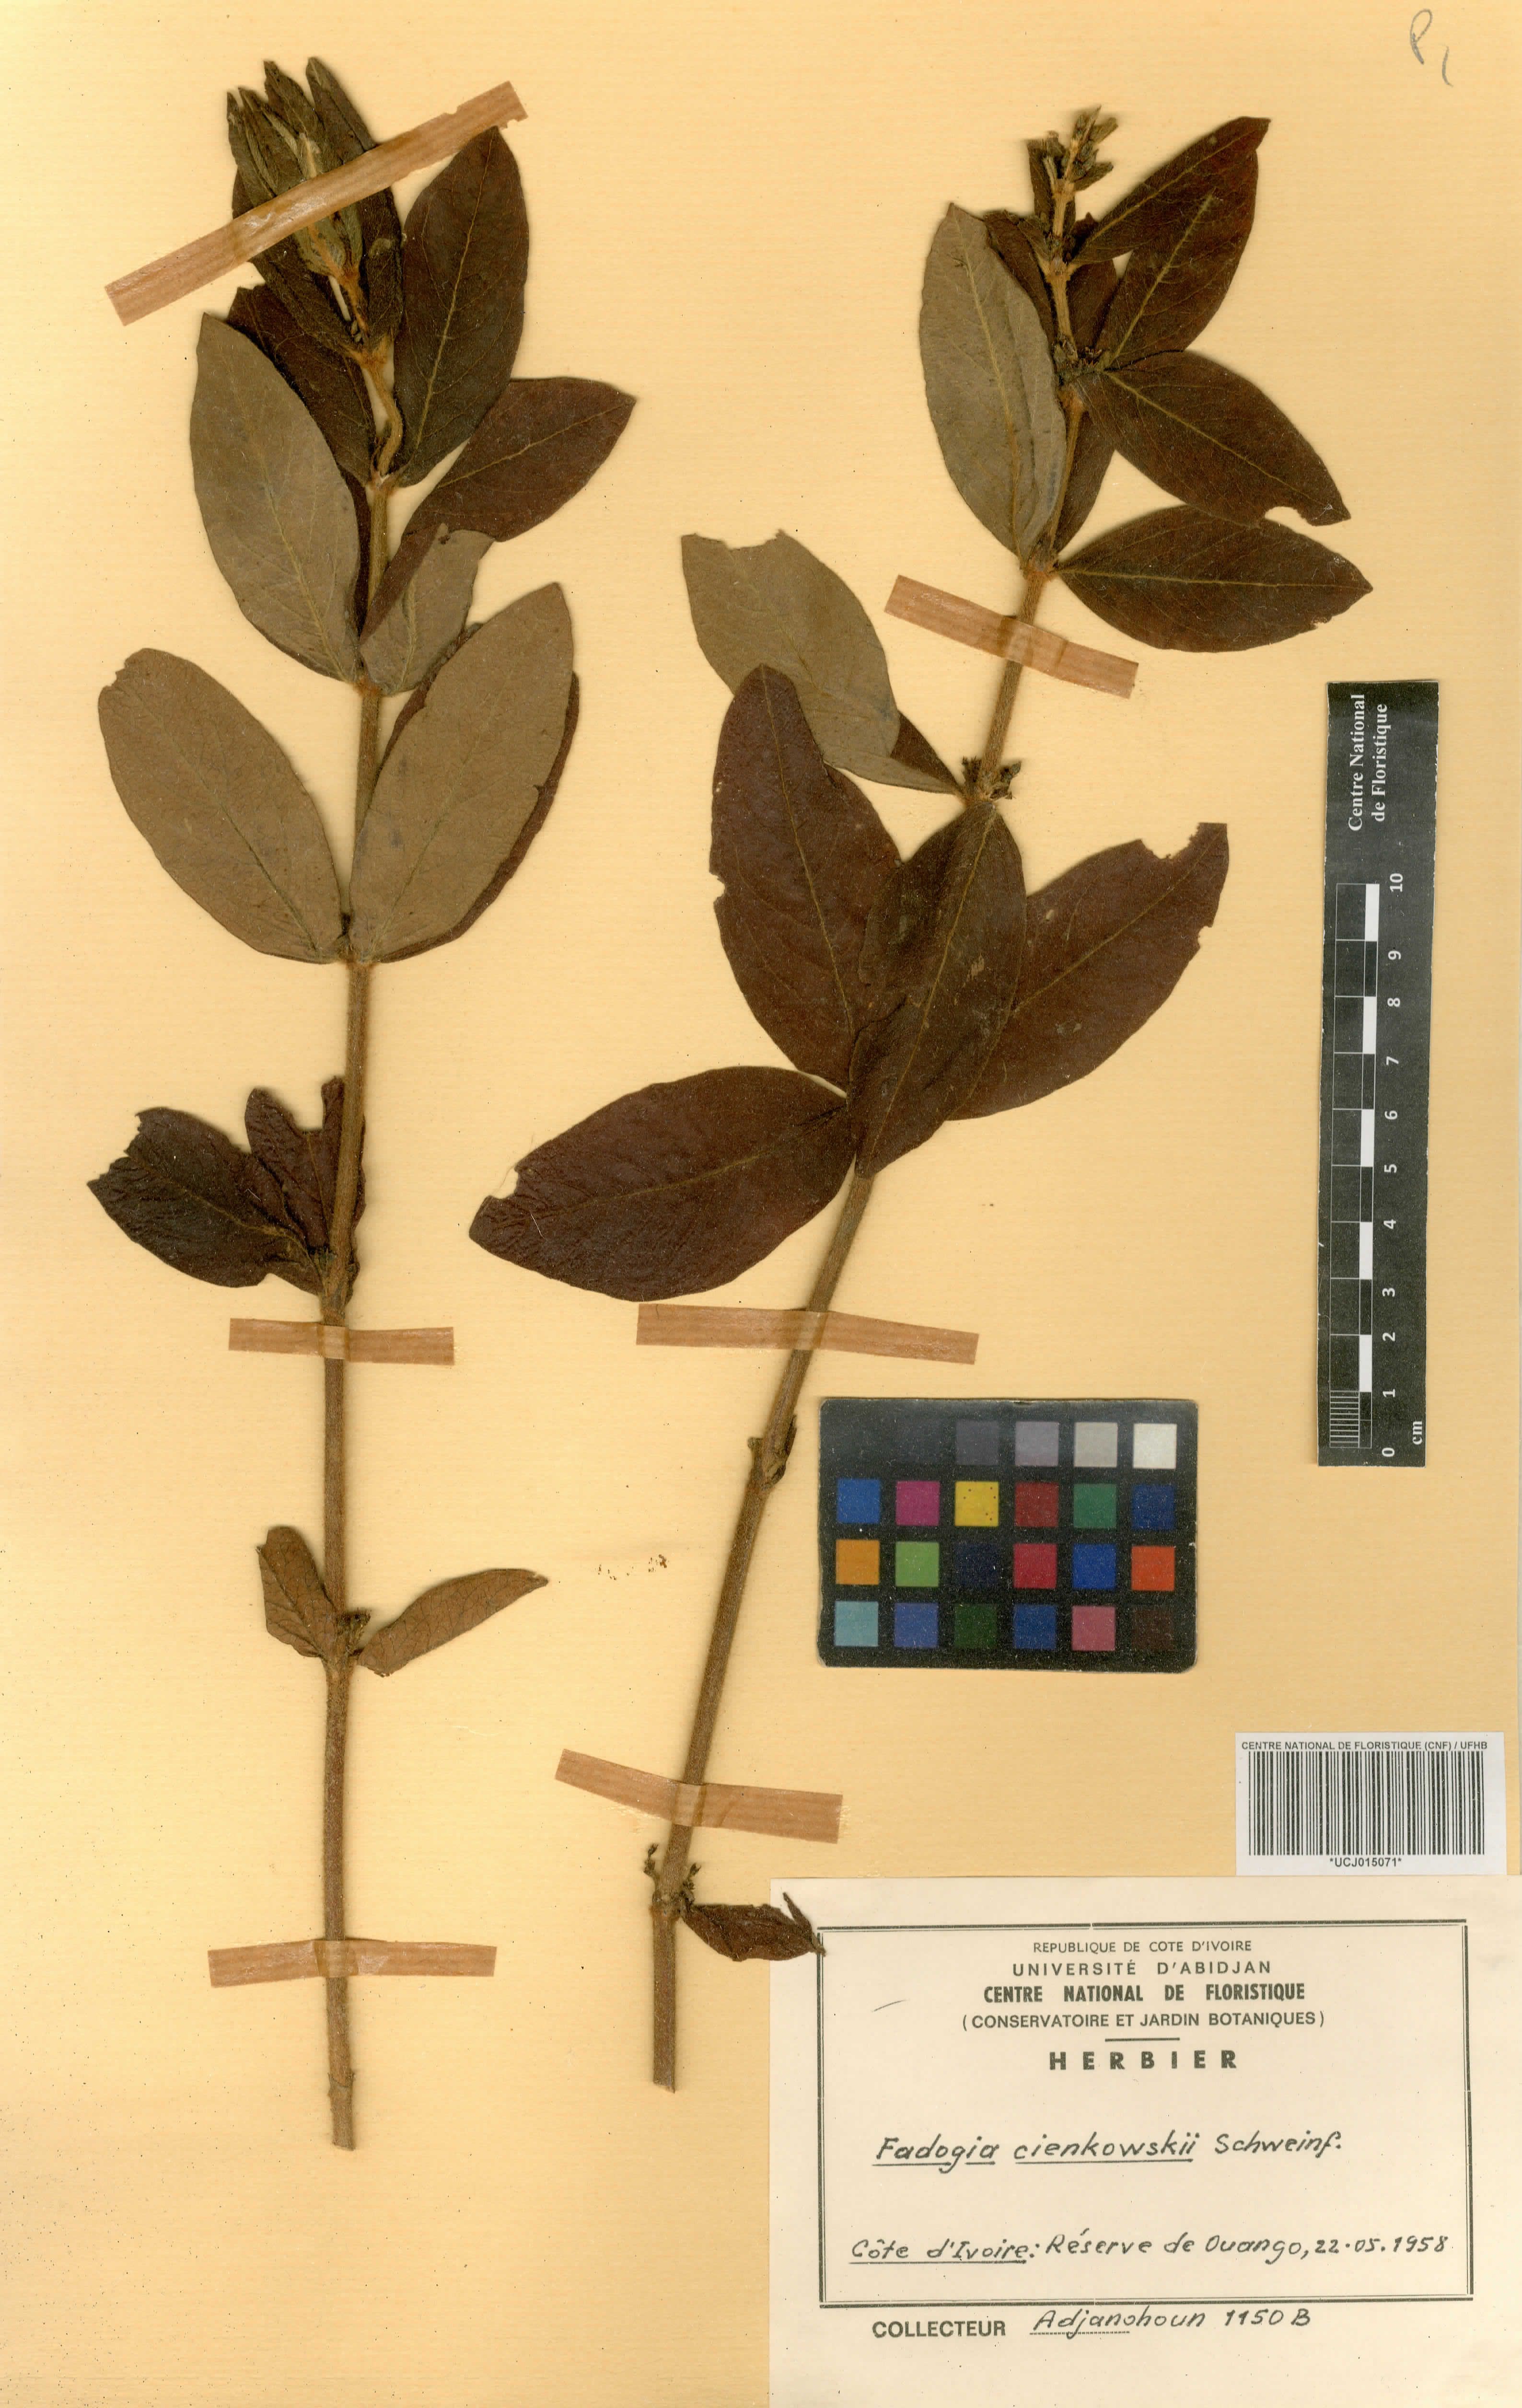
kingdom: Plantae
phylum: Tracheophyta
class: Magnoliopsida
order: Gentianales
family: Rubiaceae
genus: Fadogia
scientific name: Fadogia cienkowskii
